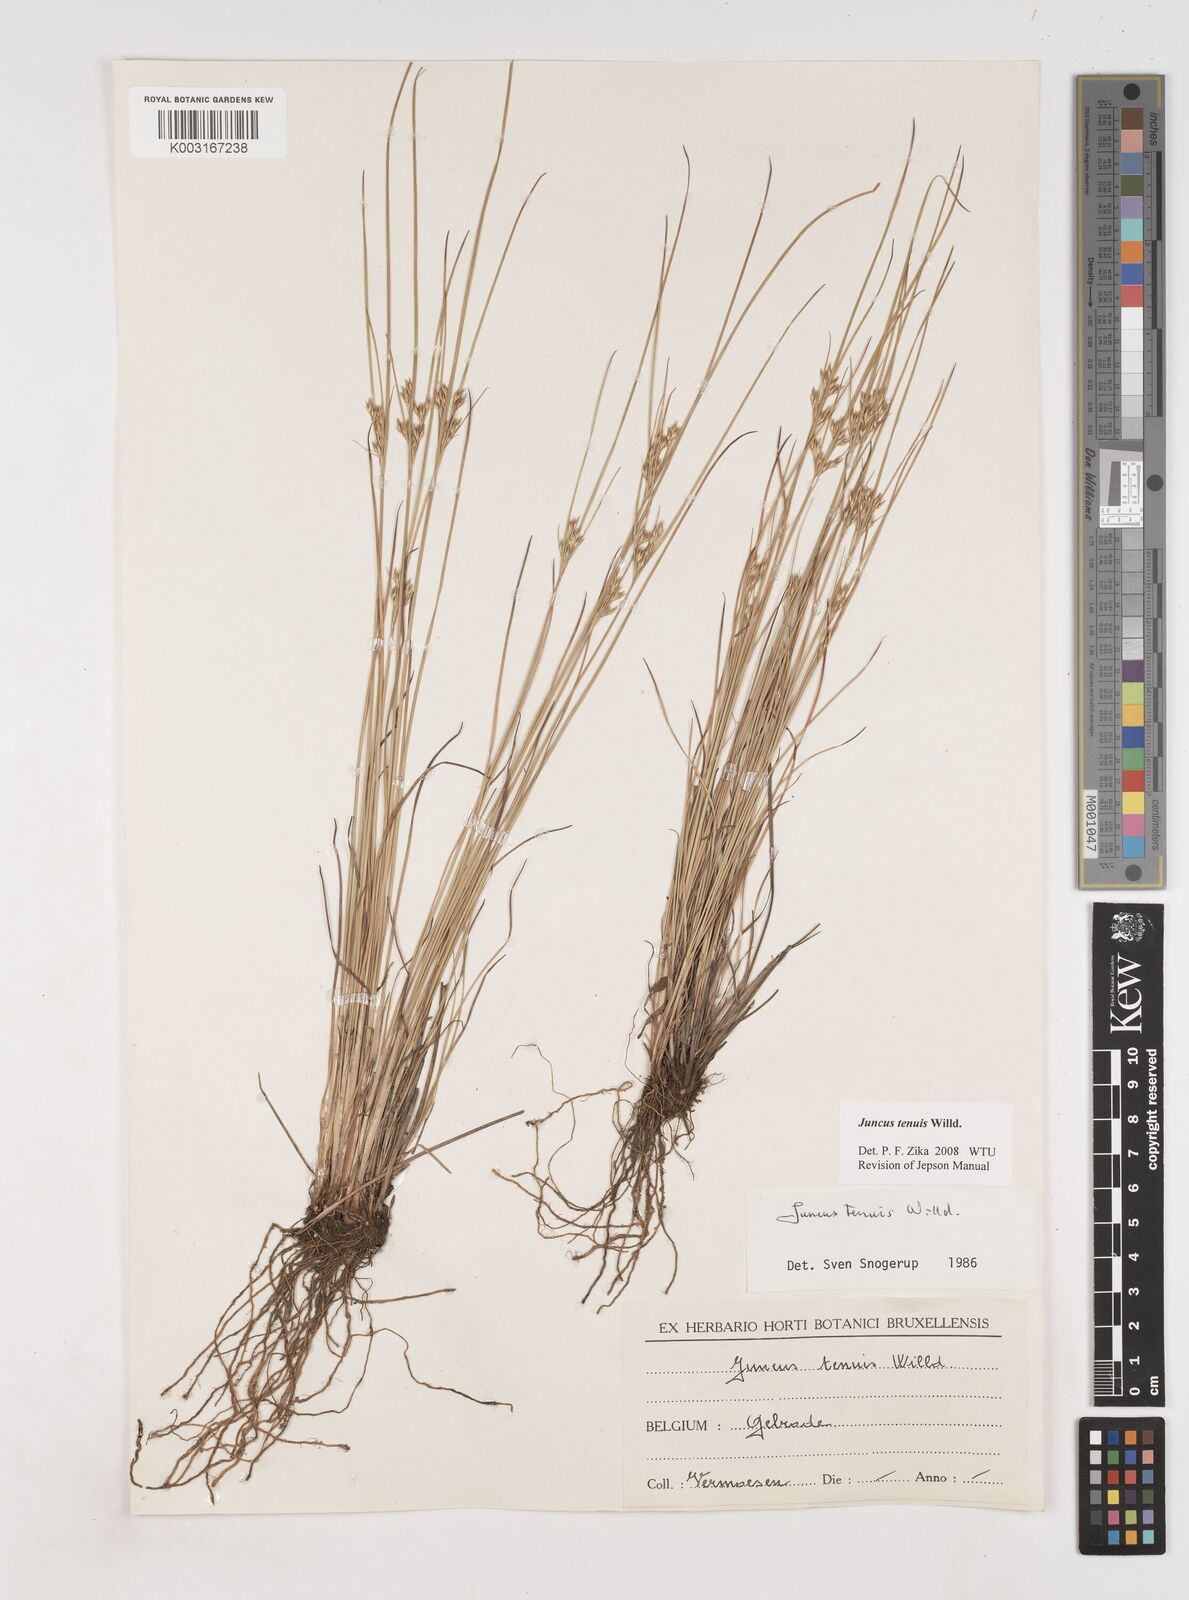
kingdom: Plantae
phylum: Tracheophyta
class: Liliopsida
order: Poales
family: Juncaceae
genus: Juncus
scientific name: Juncus tenuis
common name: Slender rush
